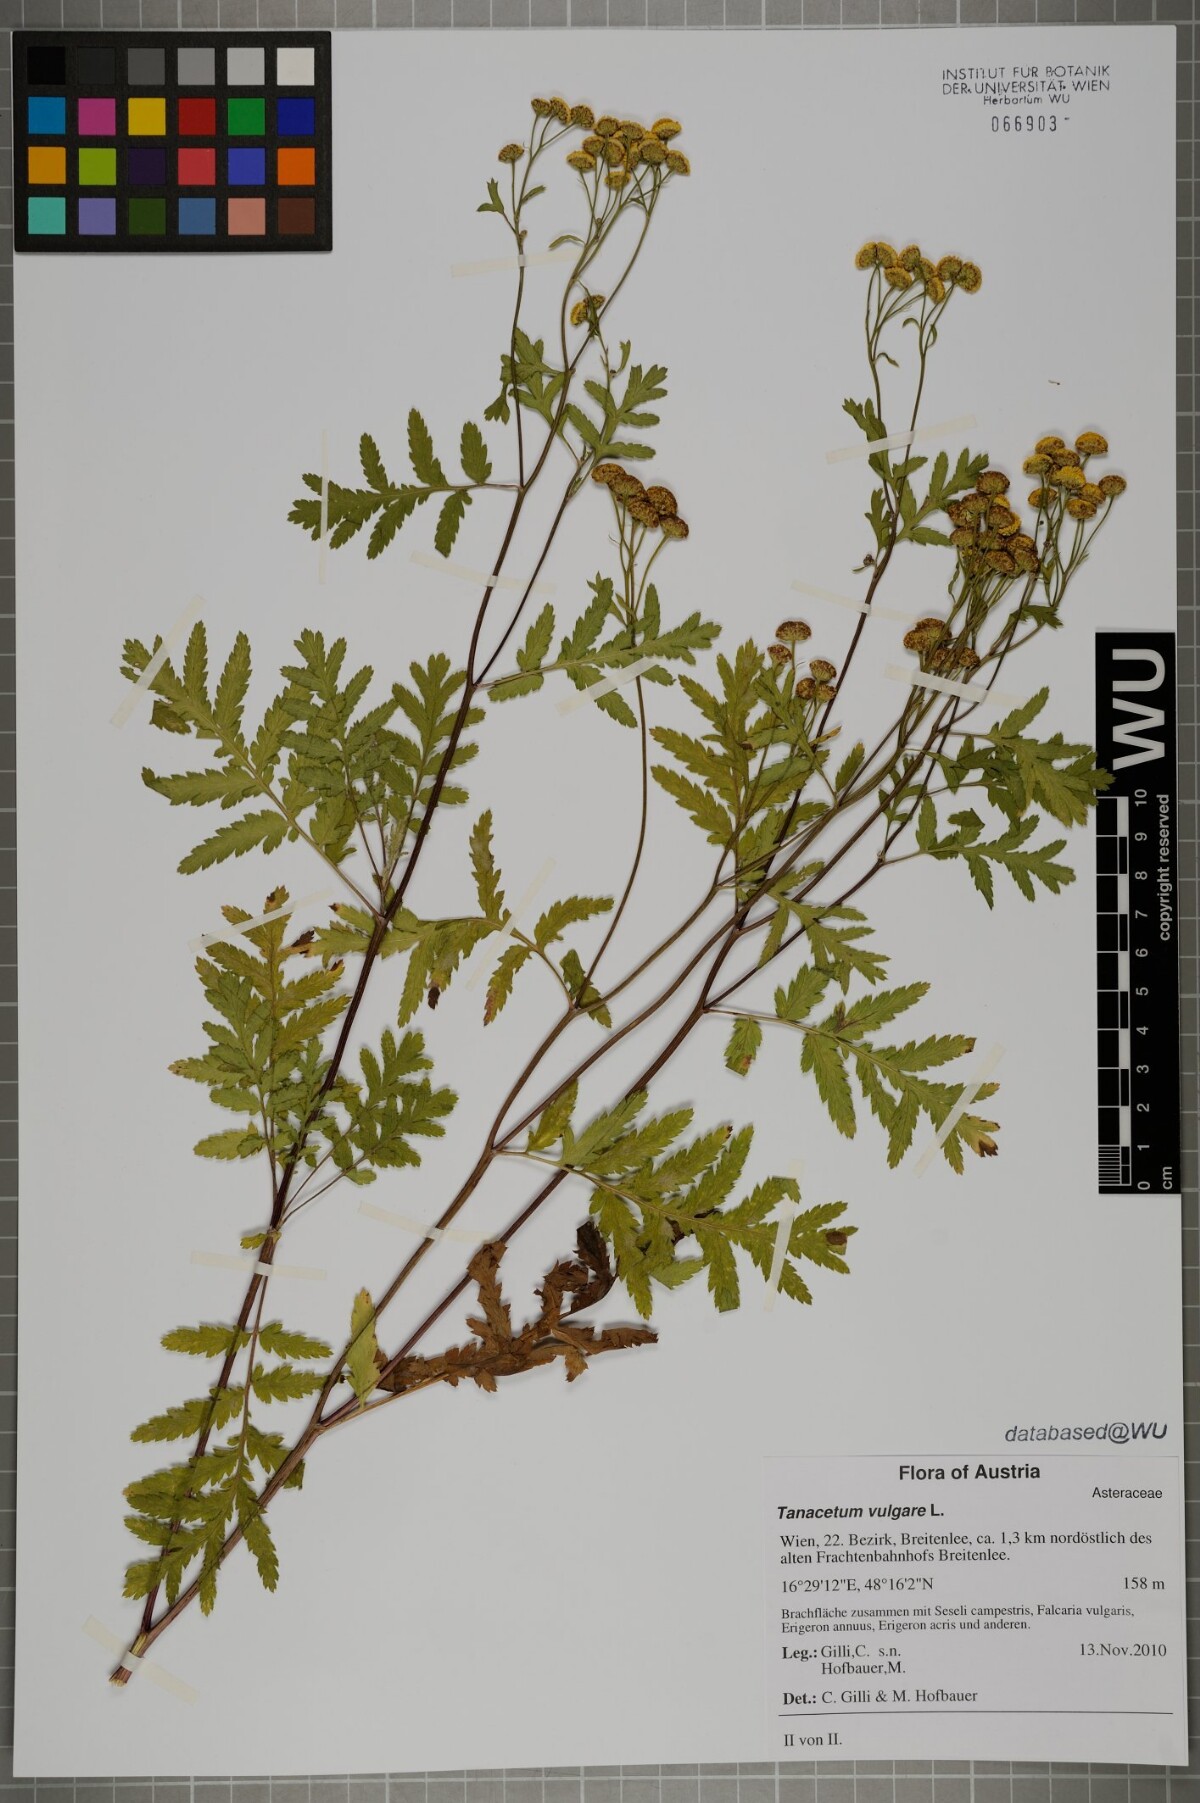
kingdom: Plantae
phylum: Tracheophyta
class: Magnoliopsida
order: Asterales
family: Asteraceae
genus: Tanacetum
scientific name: Tanacetum vulgare
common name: Common tansy
